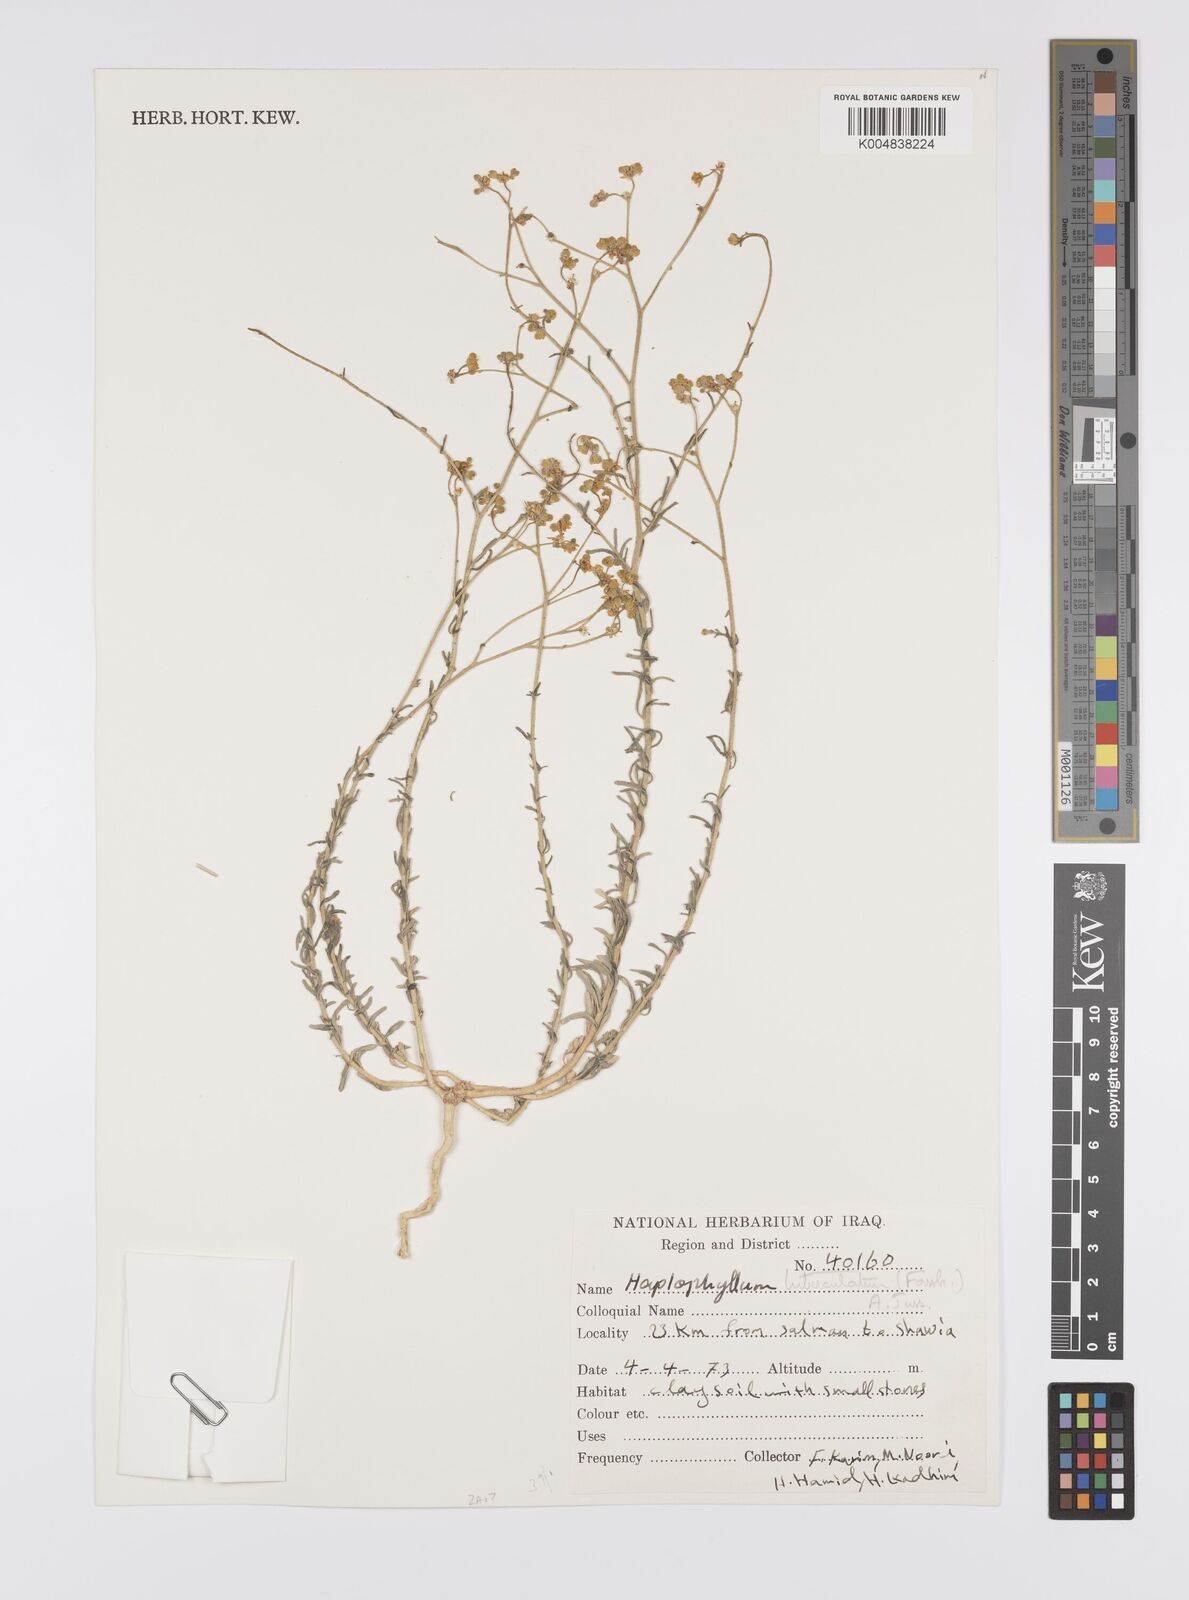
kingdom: Plantae
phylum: Tracheophyta
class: Magnoliopsida
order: Sapindales
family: Rutaceae
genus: Haplophyllum
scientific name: Haplophyllum tuberculatum
